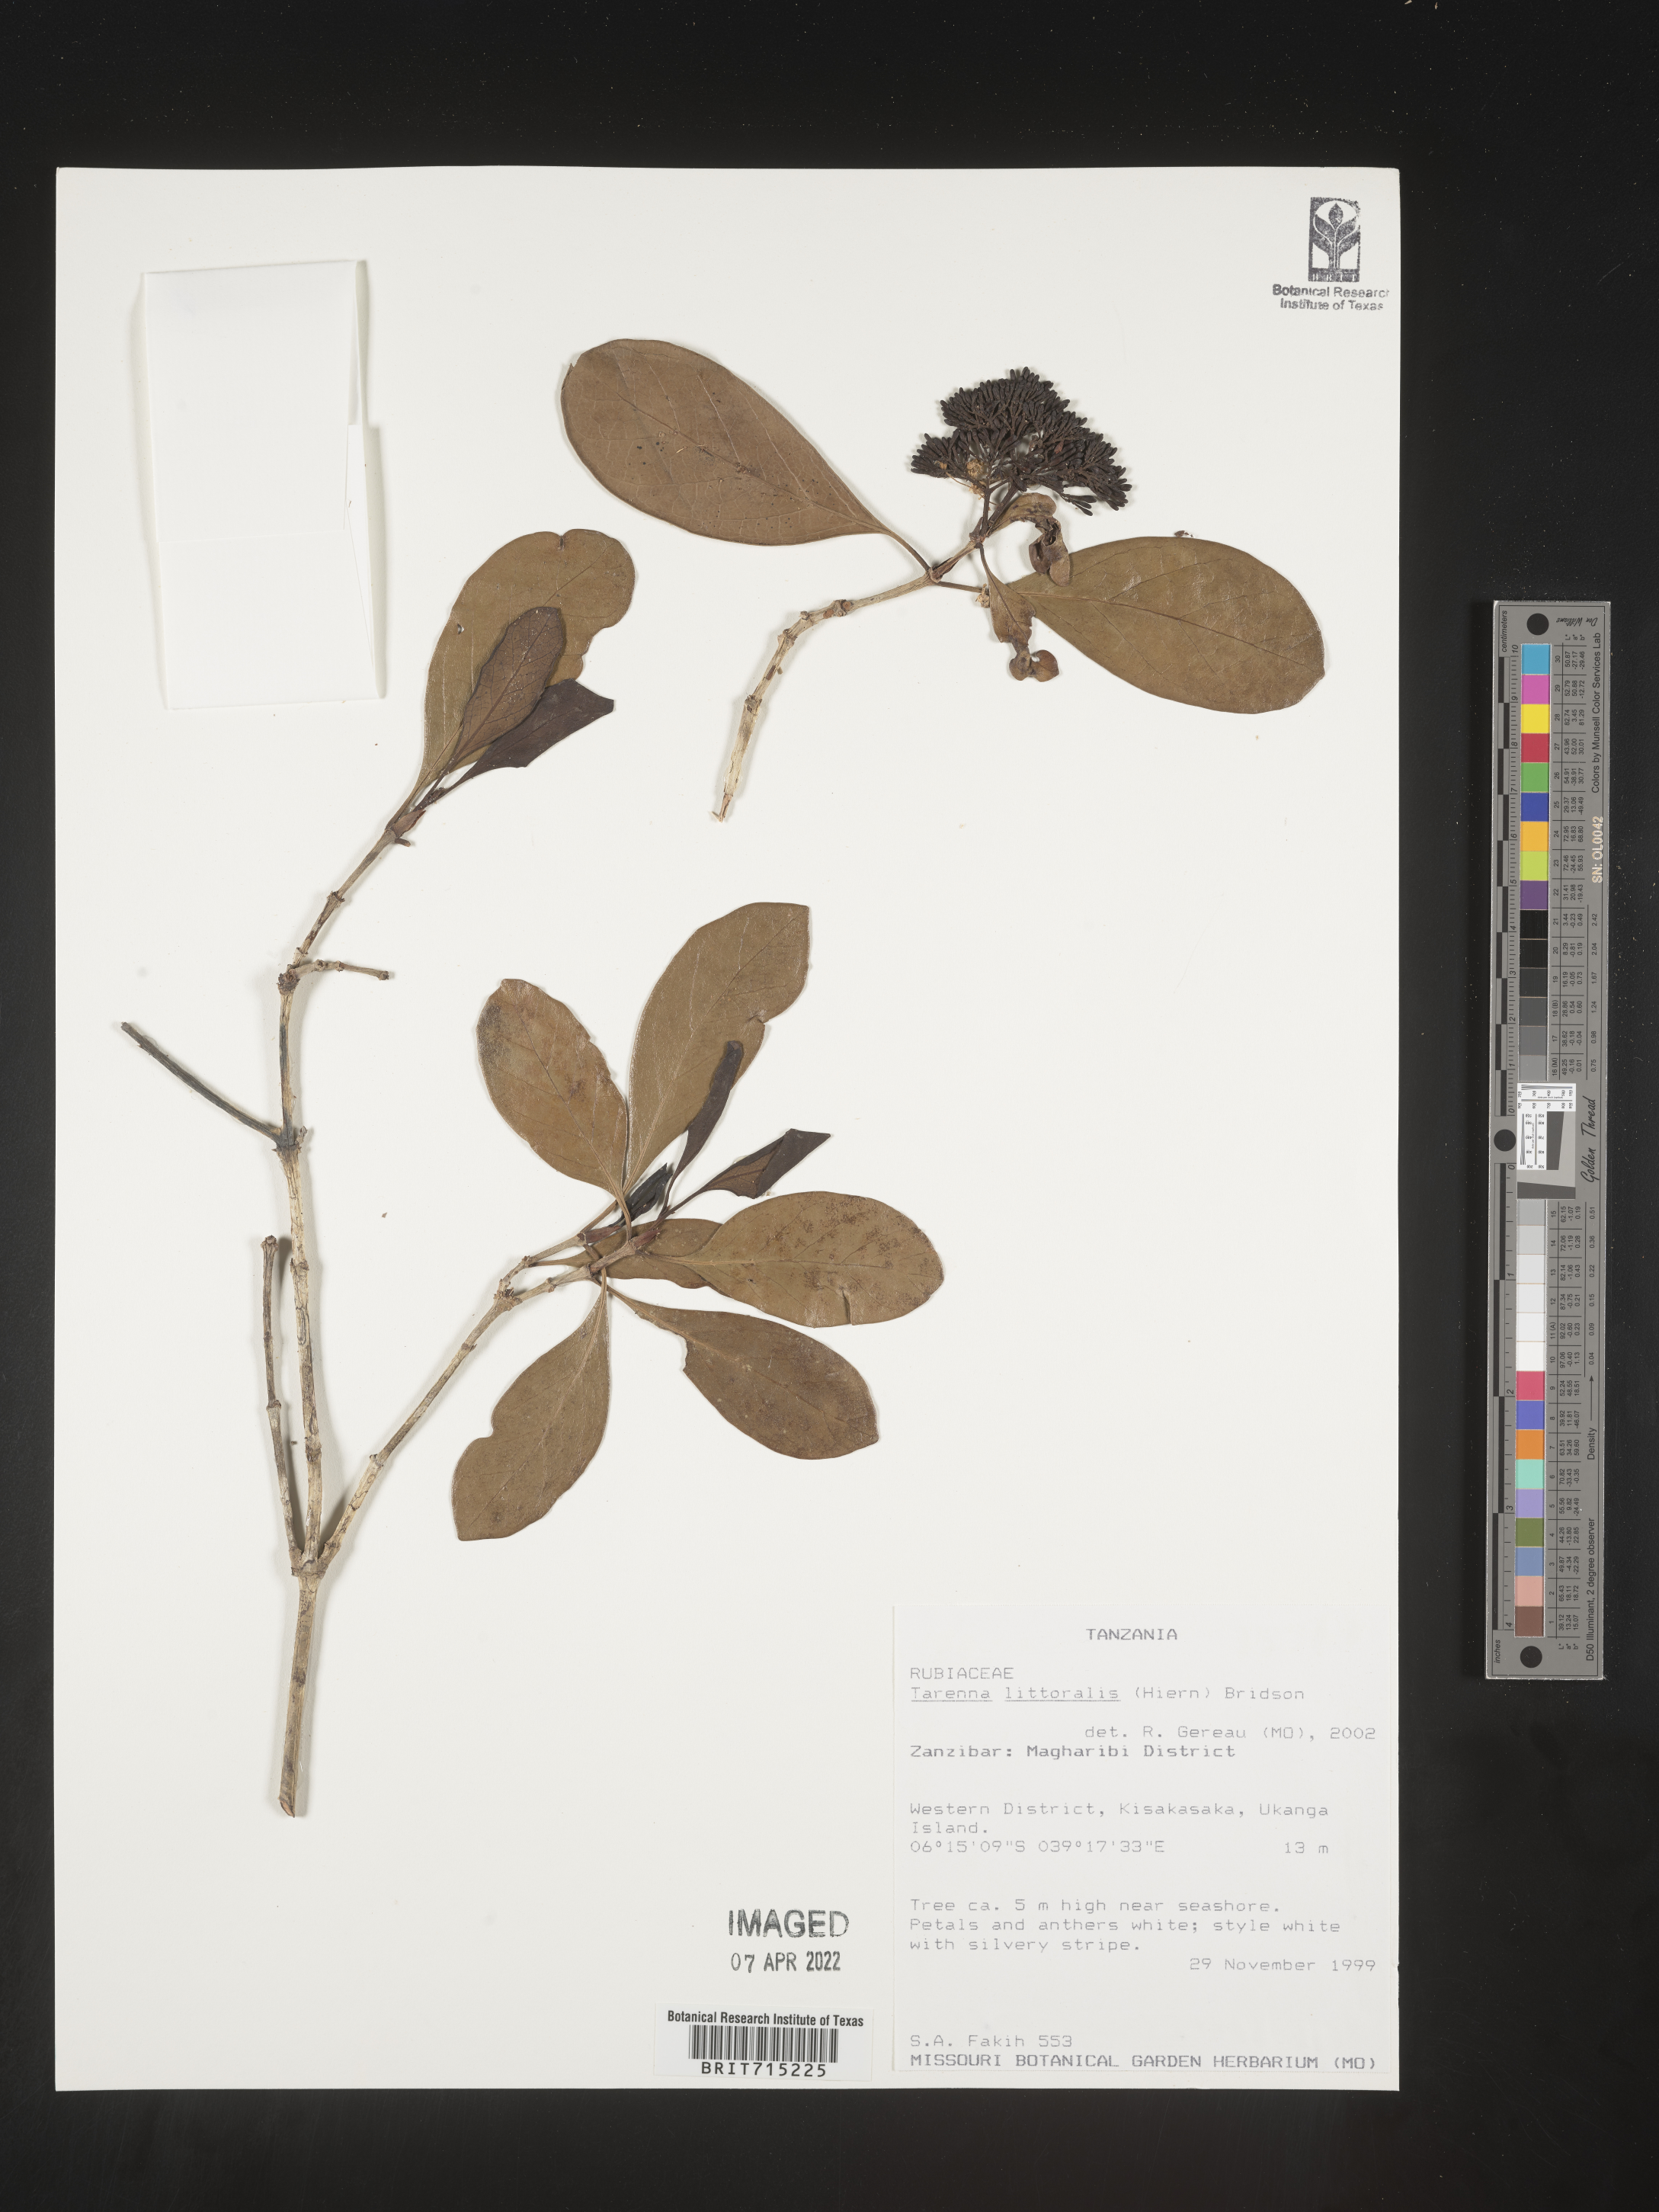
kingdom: Plantae
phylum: Tracheophyta
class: Magnoliopsida
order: Gentianales
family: Rubiaceae
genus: Tarenna
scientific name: Tarenna
